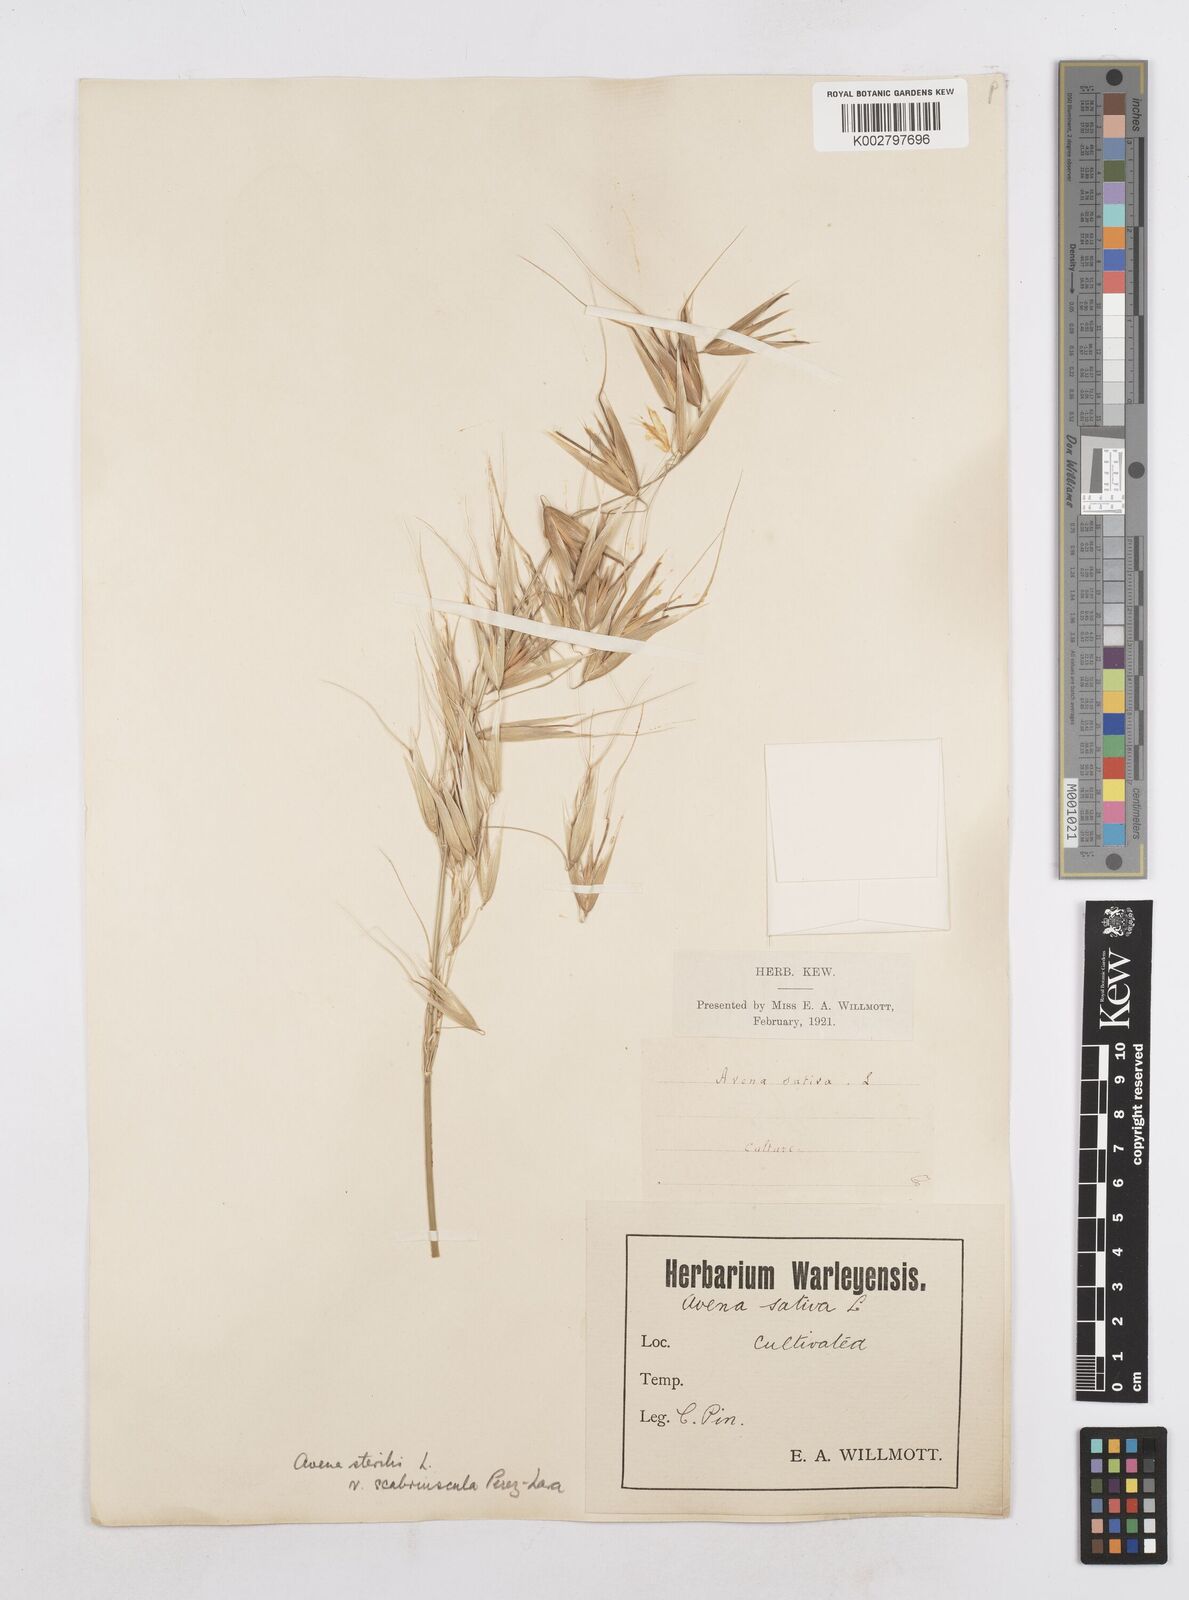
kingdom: Plantae
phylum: Tracheophyta
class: Liliopsida
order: Poales
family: Poaceae
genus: Avena
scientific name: Avena sterilis
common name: Animated oat
